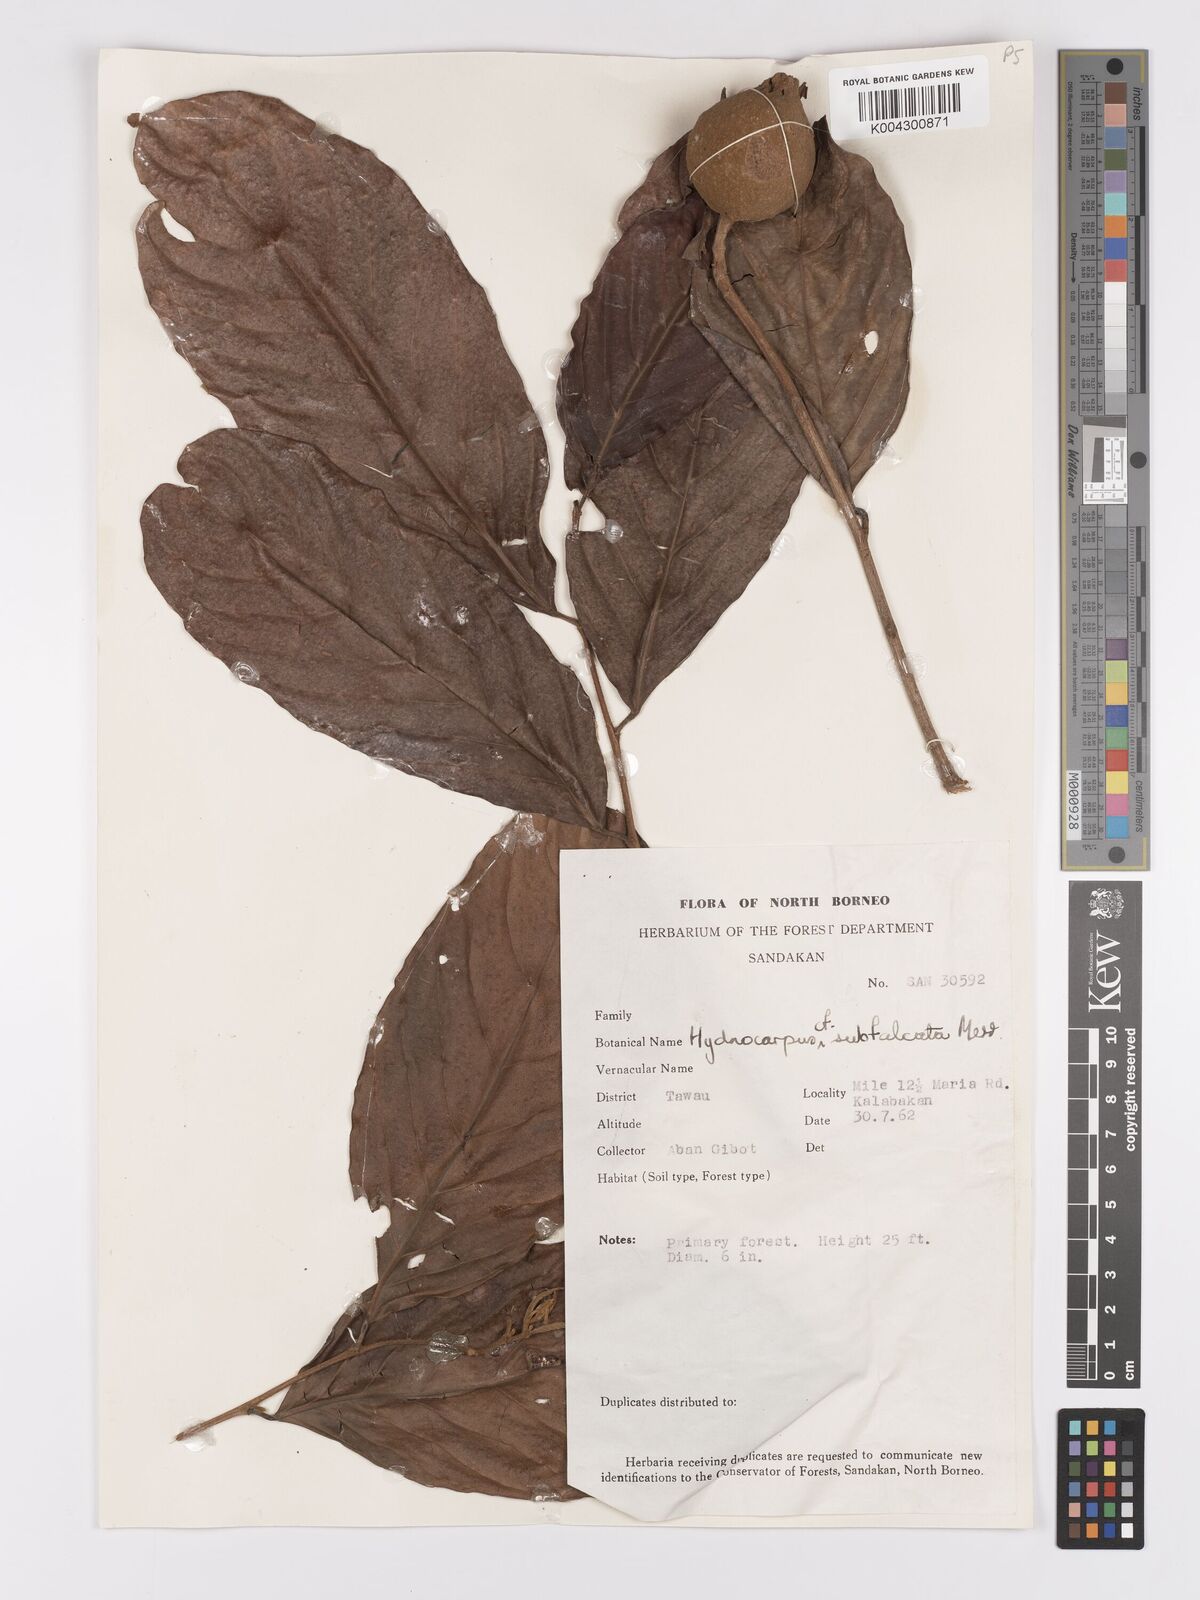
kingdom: Plantae
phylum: Tracheophyta
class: Magnoliopsida
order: Malpighiales
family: Achariaceae
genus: Hydnocarpus
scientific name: Hydnocarpus subfalcatus
